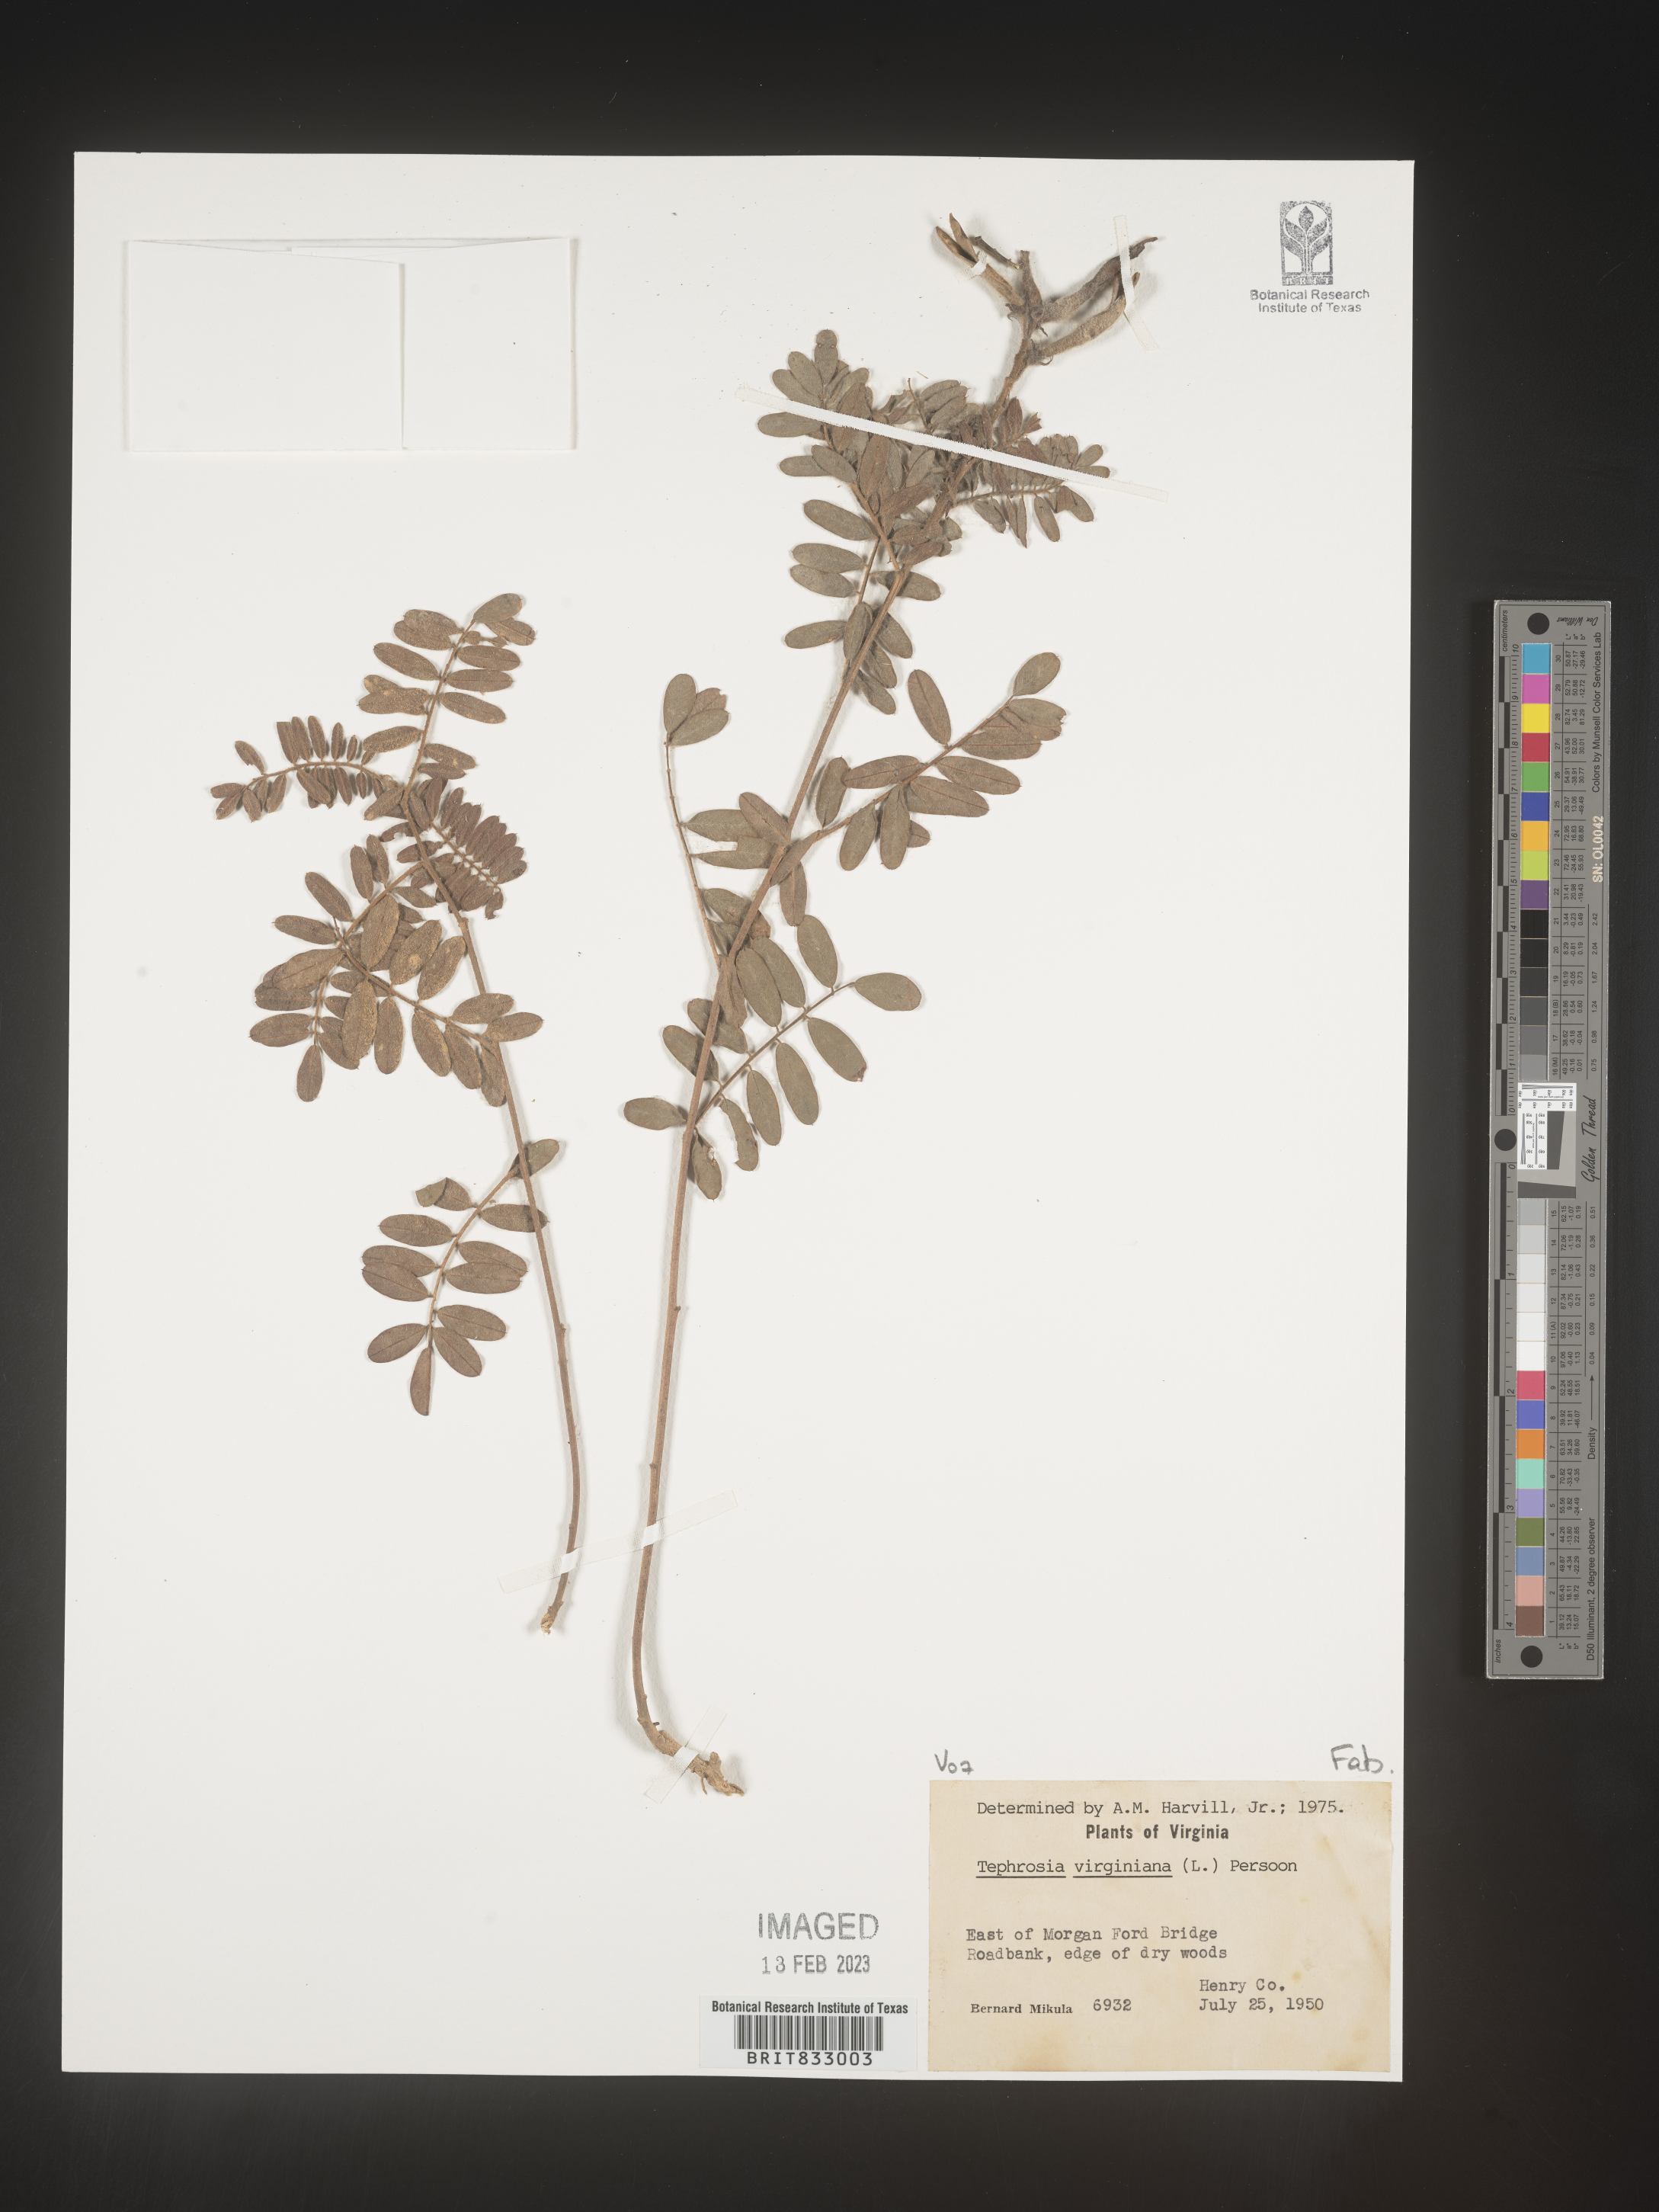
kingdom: Plantae
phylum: Tracheophyta
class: Magnoliopsida
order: Fabales
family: Fabaceae
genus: Tephrosia
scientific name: Tephrosia virginiana
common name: Rabbit-pea
